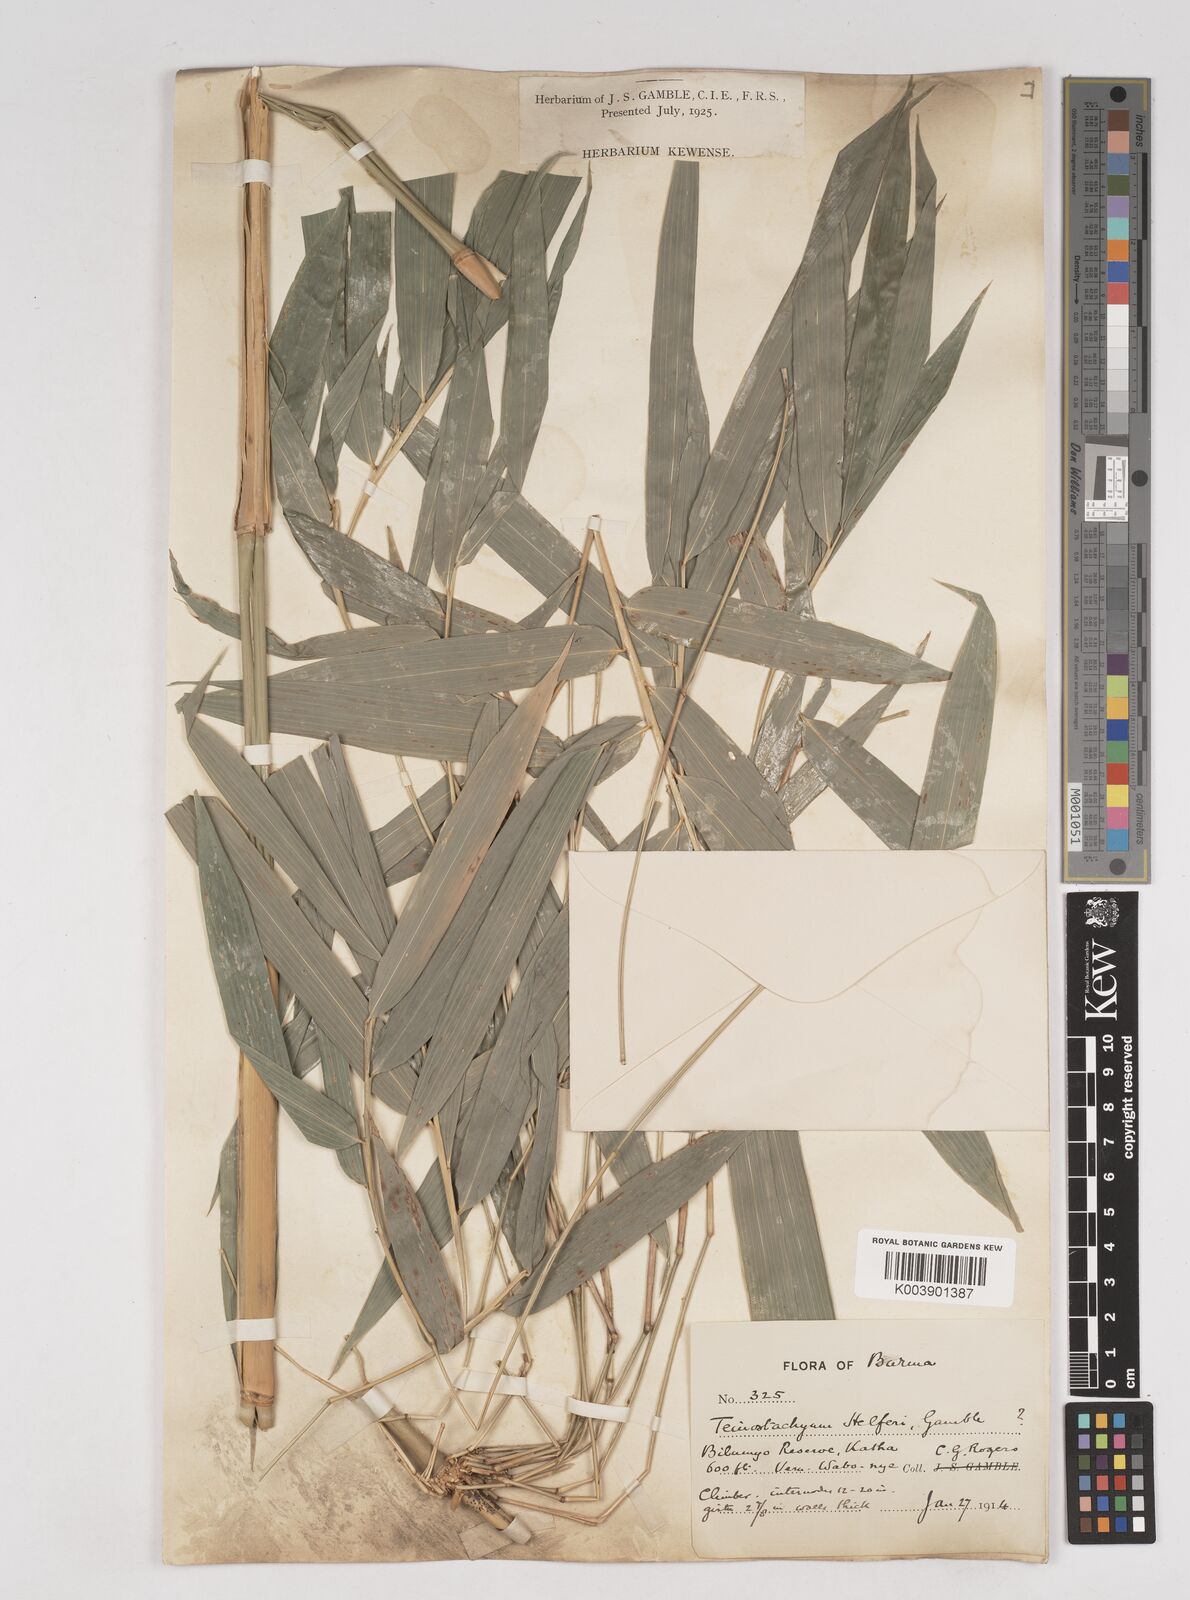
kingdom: Plantae
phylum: Tracheophyta
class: Liliopsida
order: Poales
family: Poaceae
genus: Schizostachyum
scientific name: Schizostachyum helferi
